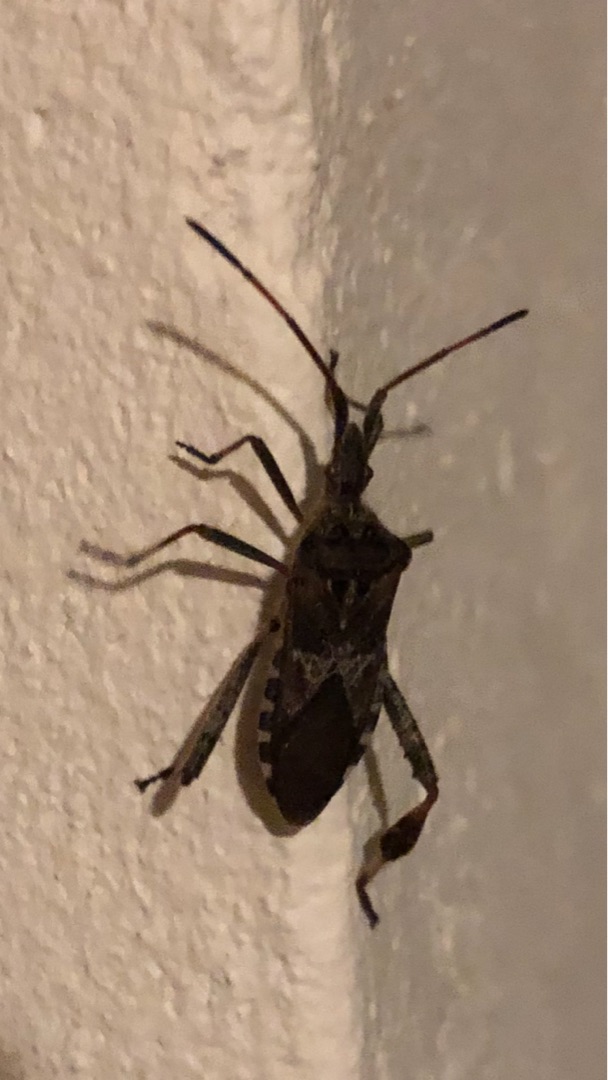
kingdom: Animalia
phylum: Arthropoda
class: Insecta
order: Hemiptera
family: Coreidae
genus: Leptoglossus
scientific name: Leptoglossus occidentalis
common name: Amerikansk fyrretæge
